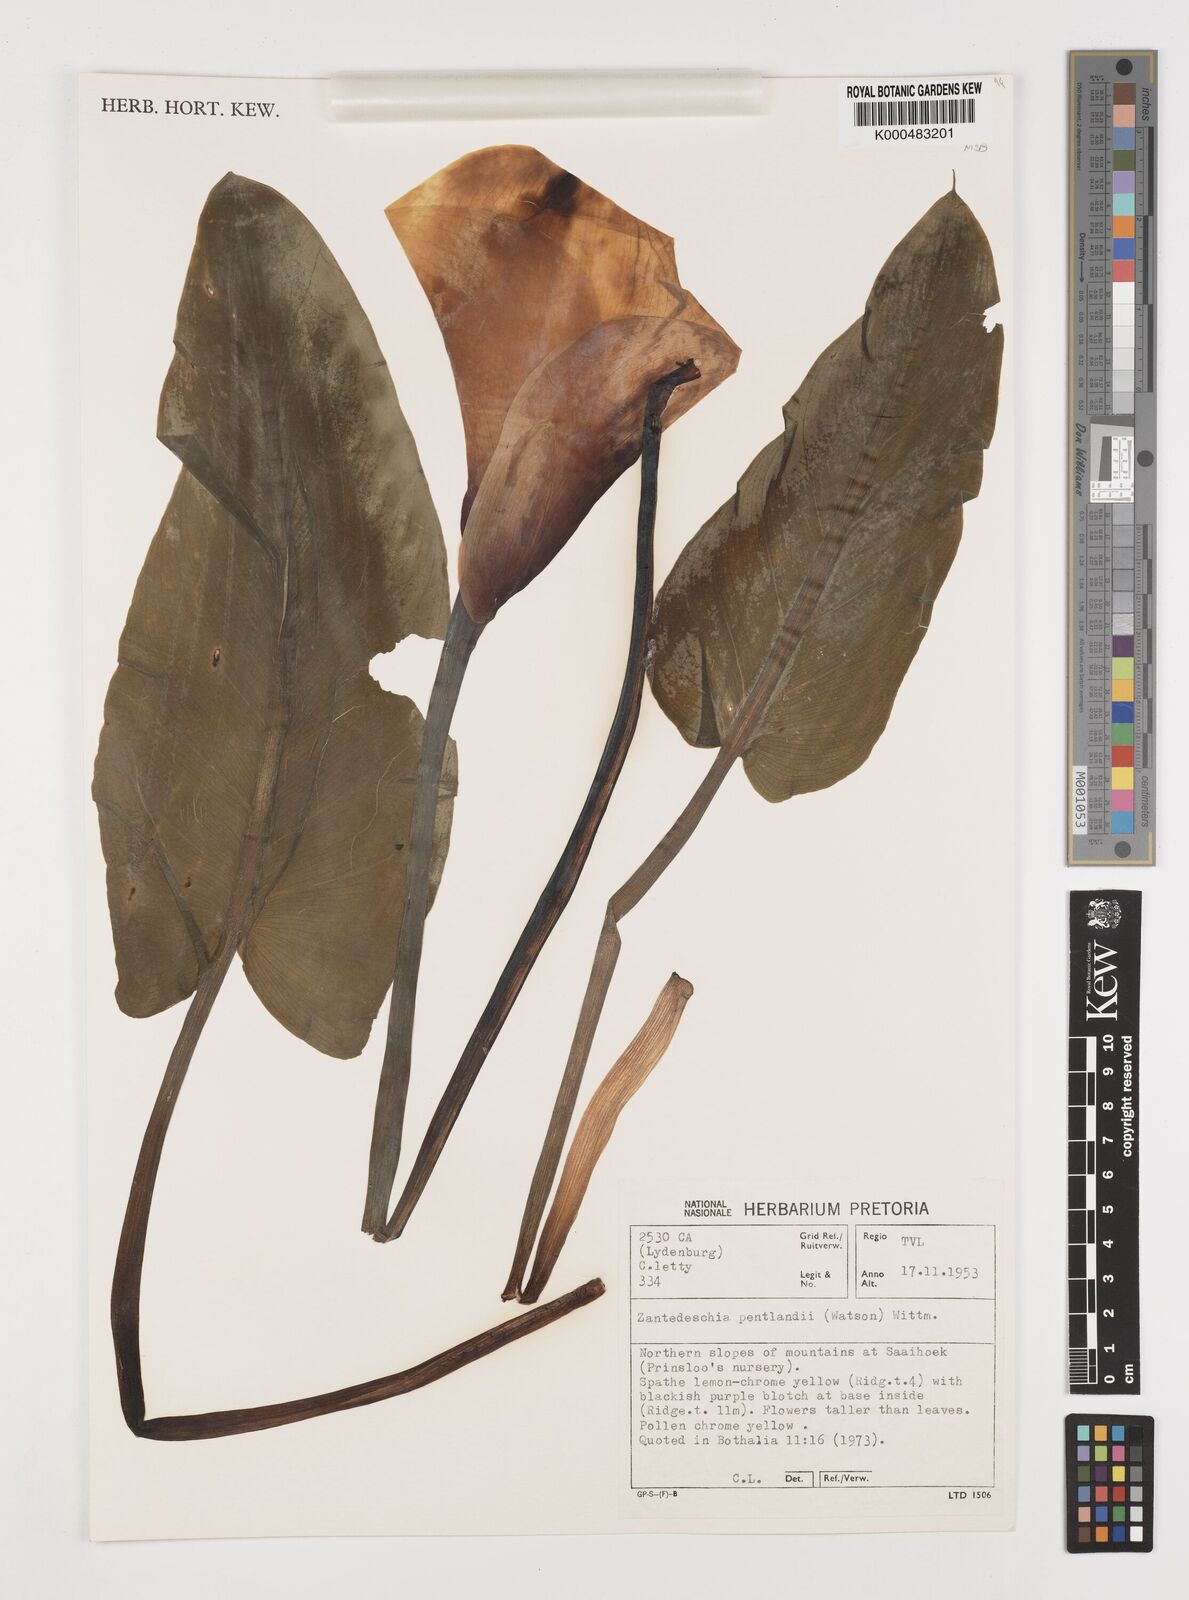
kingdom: Plantae
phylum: Tracheophyta
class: Liliopsida
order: Alismatales
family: Araceae
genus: Zantedeschia
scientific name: Zantedeschia pentlandii
